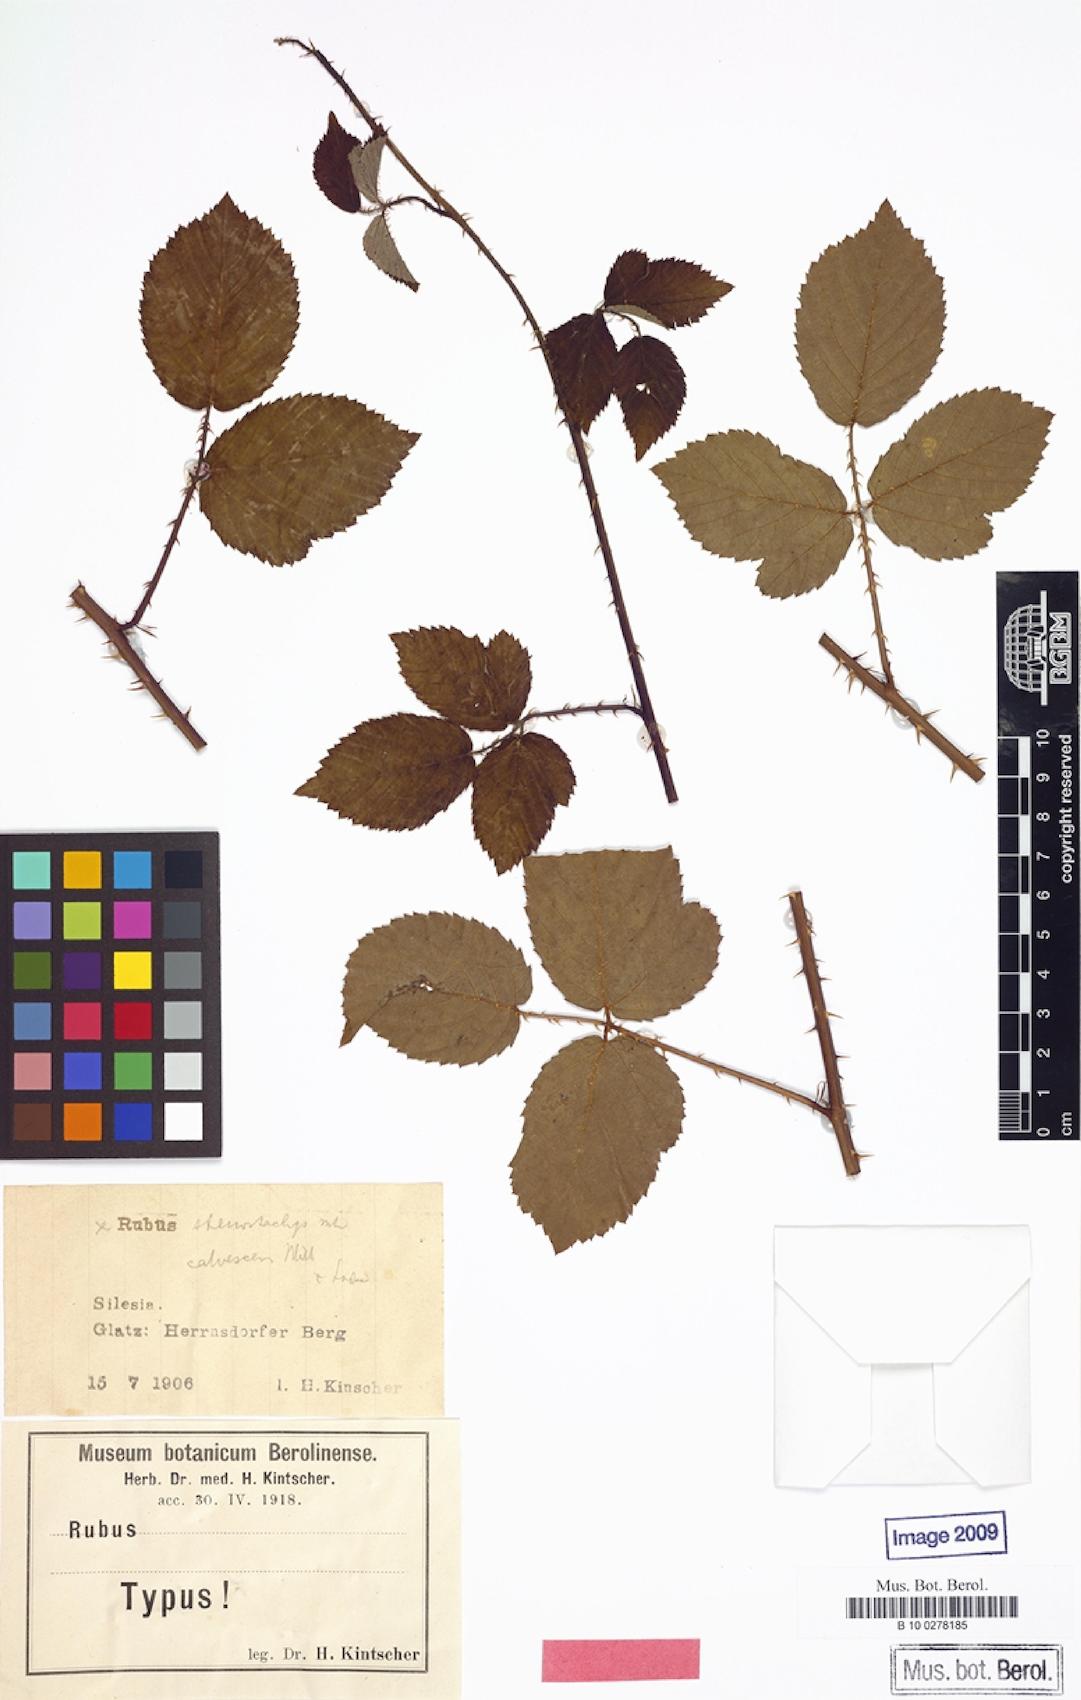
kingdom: Plantae
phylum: Tracheophyta
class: Magnoliopsida
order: Rosales
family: Rosaceae
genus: Rubus
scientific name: Rubus stenostachyodes
